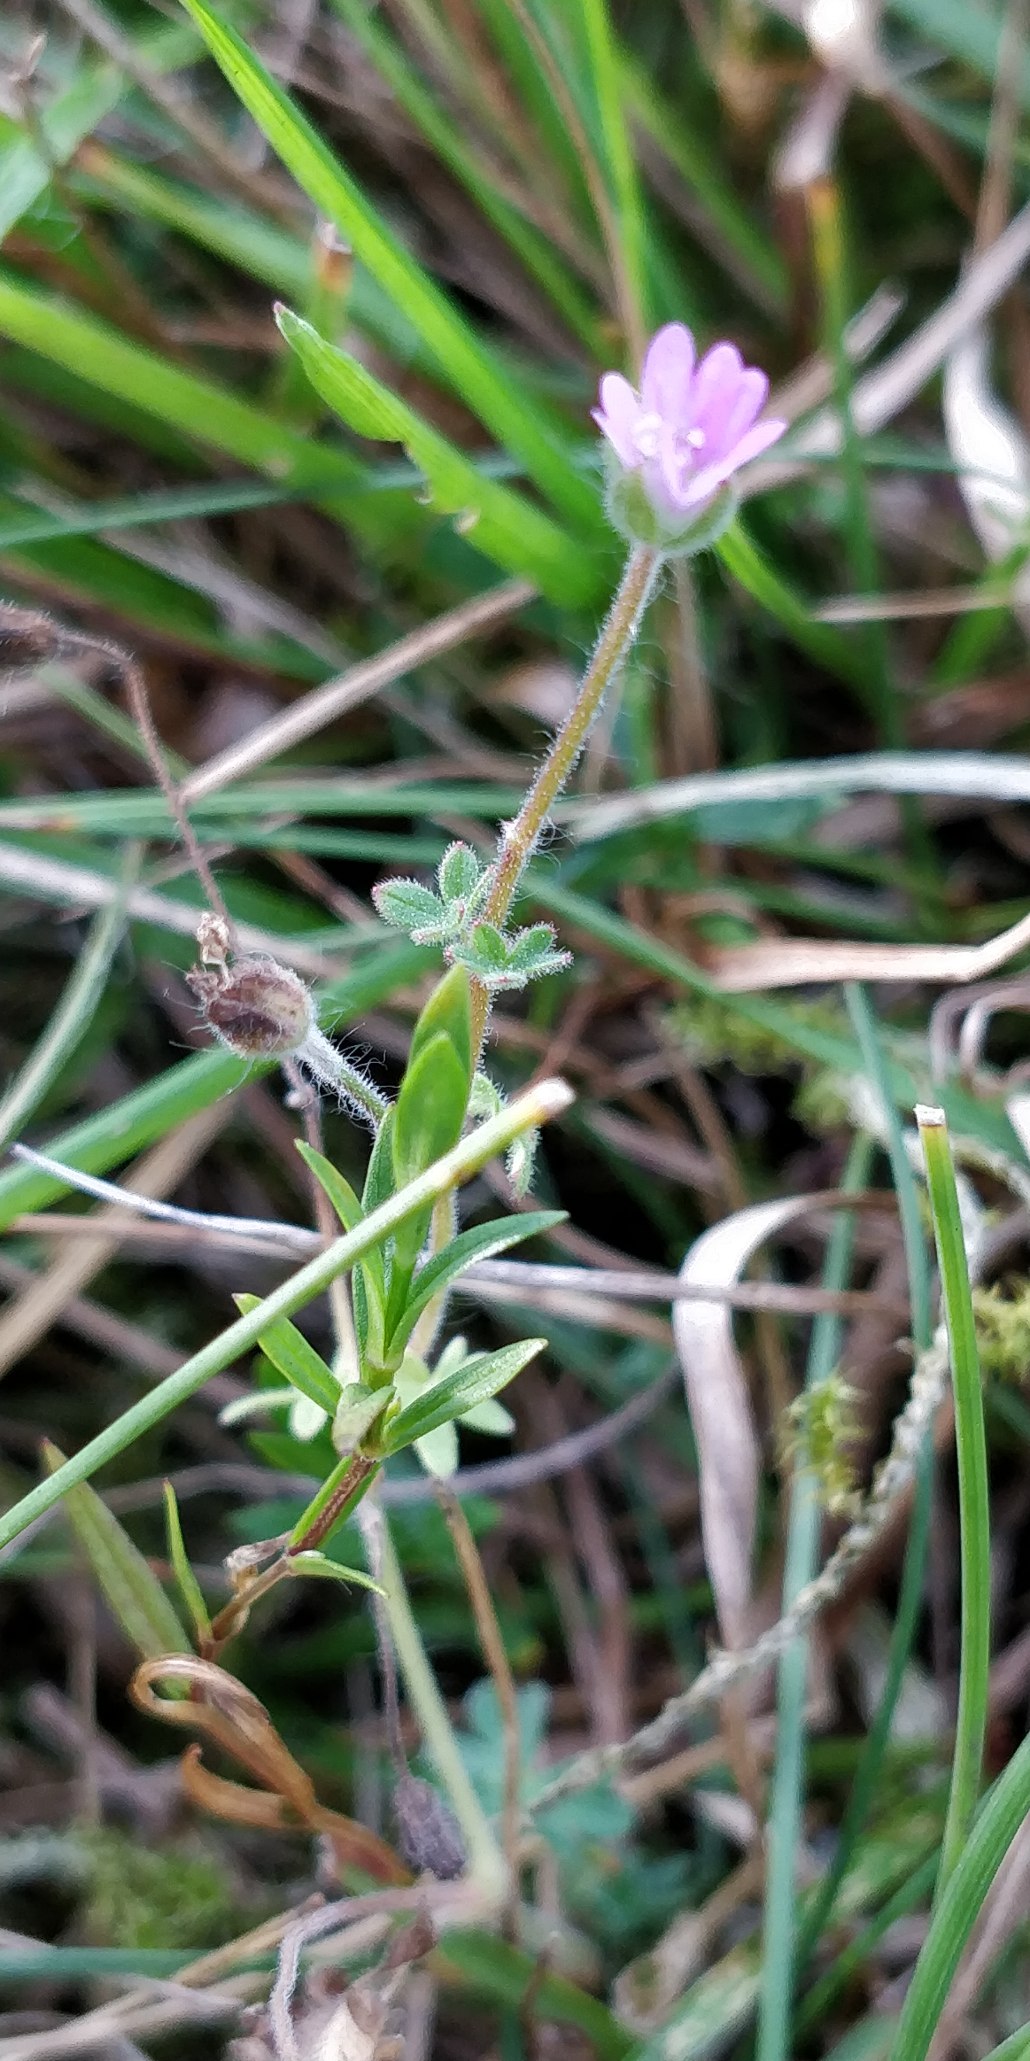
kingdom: Plantae
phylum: Tracheophyta
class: Magnoliopsida
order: Geraniales
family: Geraniaceae
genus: Geranium
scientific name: Geranium molle
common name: Blød storkenæb
